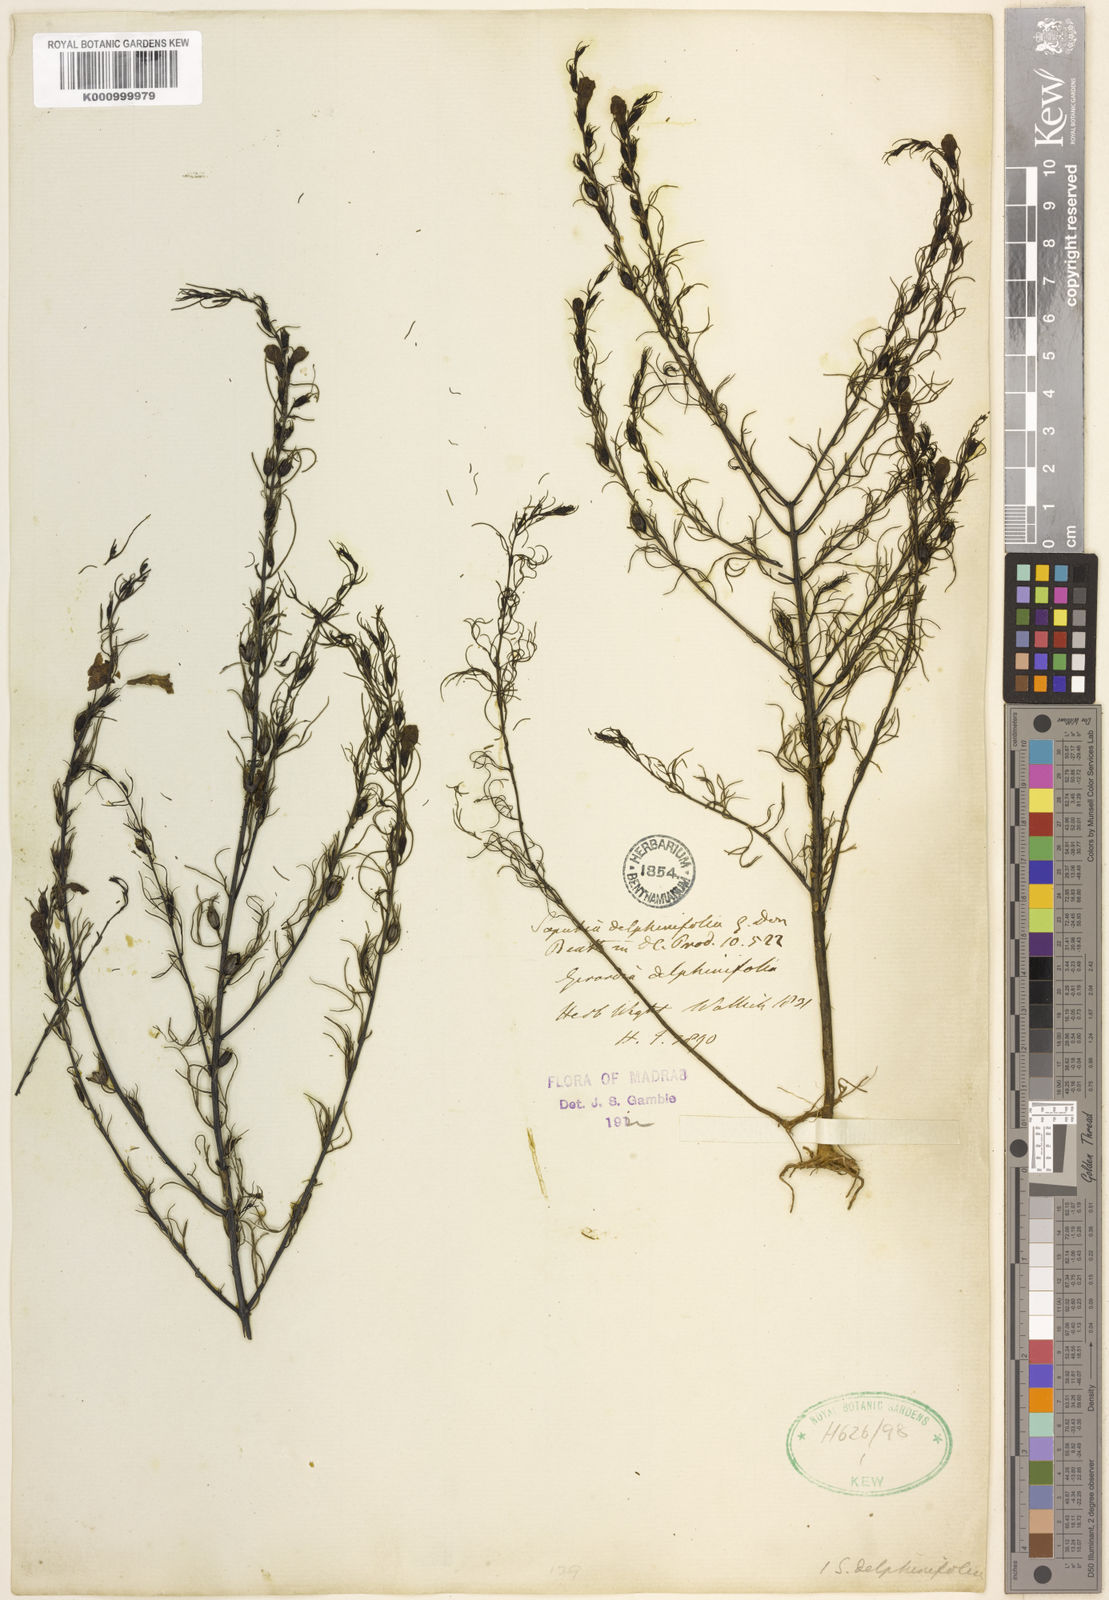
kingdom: Plantae
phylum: Tracheophyta
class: Magnoliopsida
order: Lamiales
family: Orobanchaceae
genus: Parasopubia
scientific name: Parasopubia delphiniifolia
